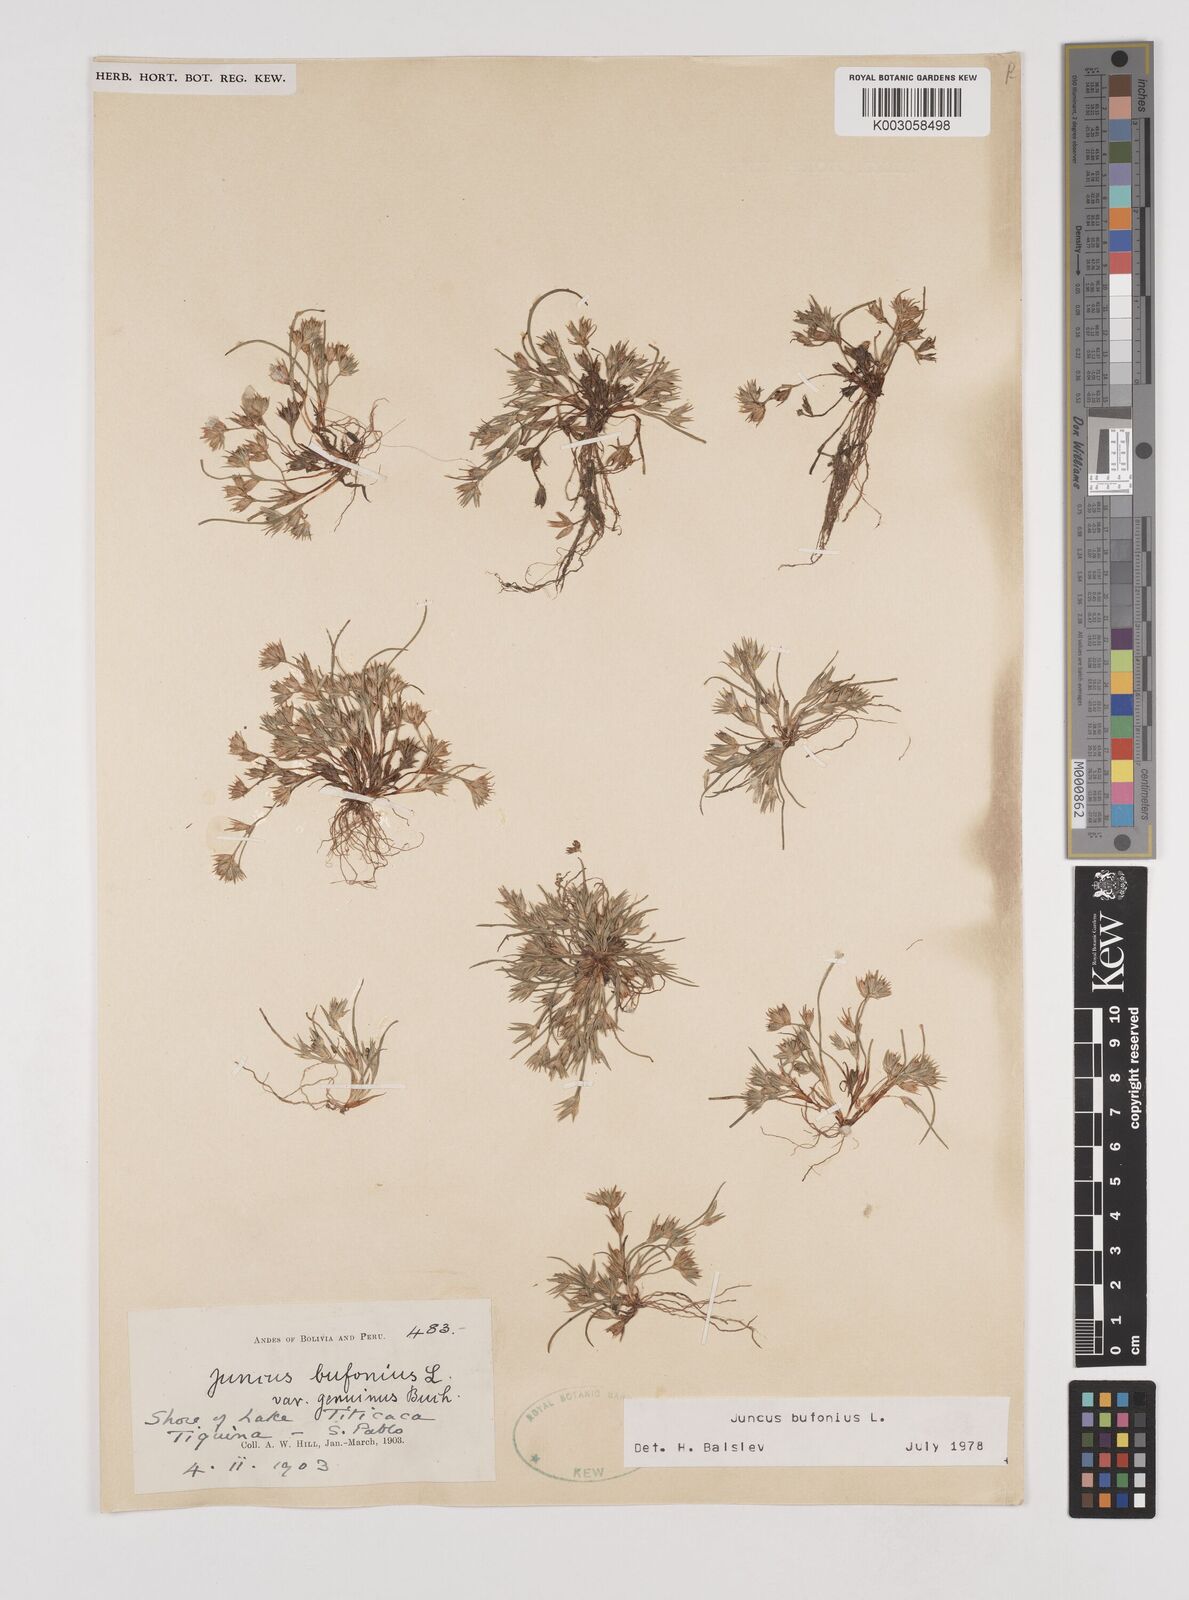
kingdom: Plantae
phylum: Tracheophyta
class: Liliopsida
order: Poales
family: Juncaceae
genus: Juncus
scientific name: Juncus bufonius
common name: Toad rush
